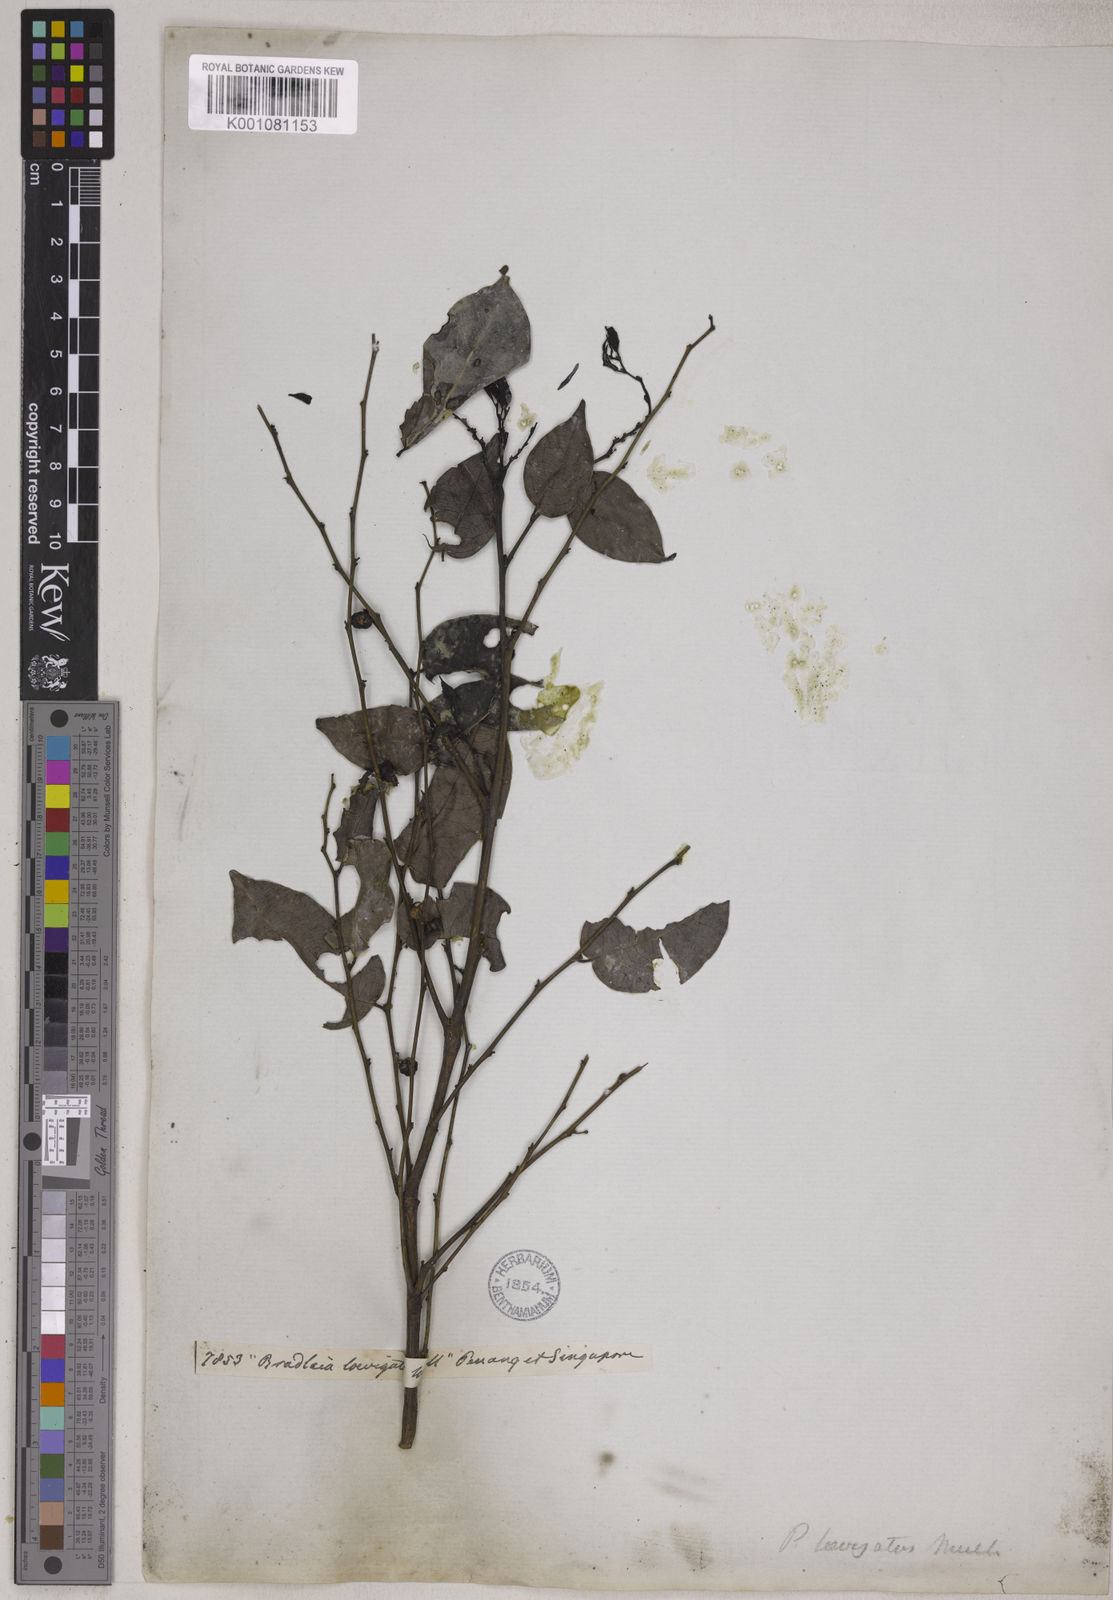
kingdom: Plantae
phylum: Tracheophyta
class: Magnoliopsida
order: Malpighiales
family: Phyllanthaceae
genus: Glochidion
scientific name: Glochidion lutescens
